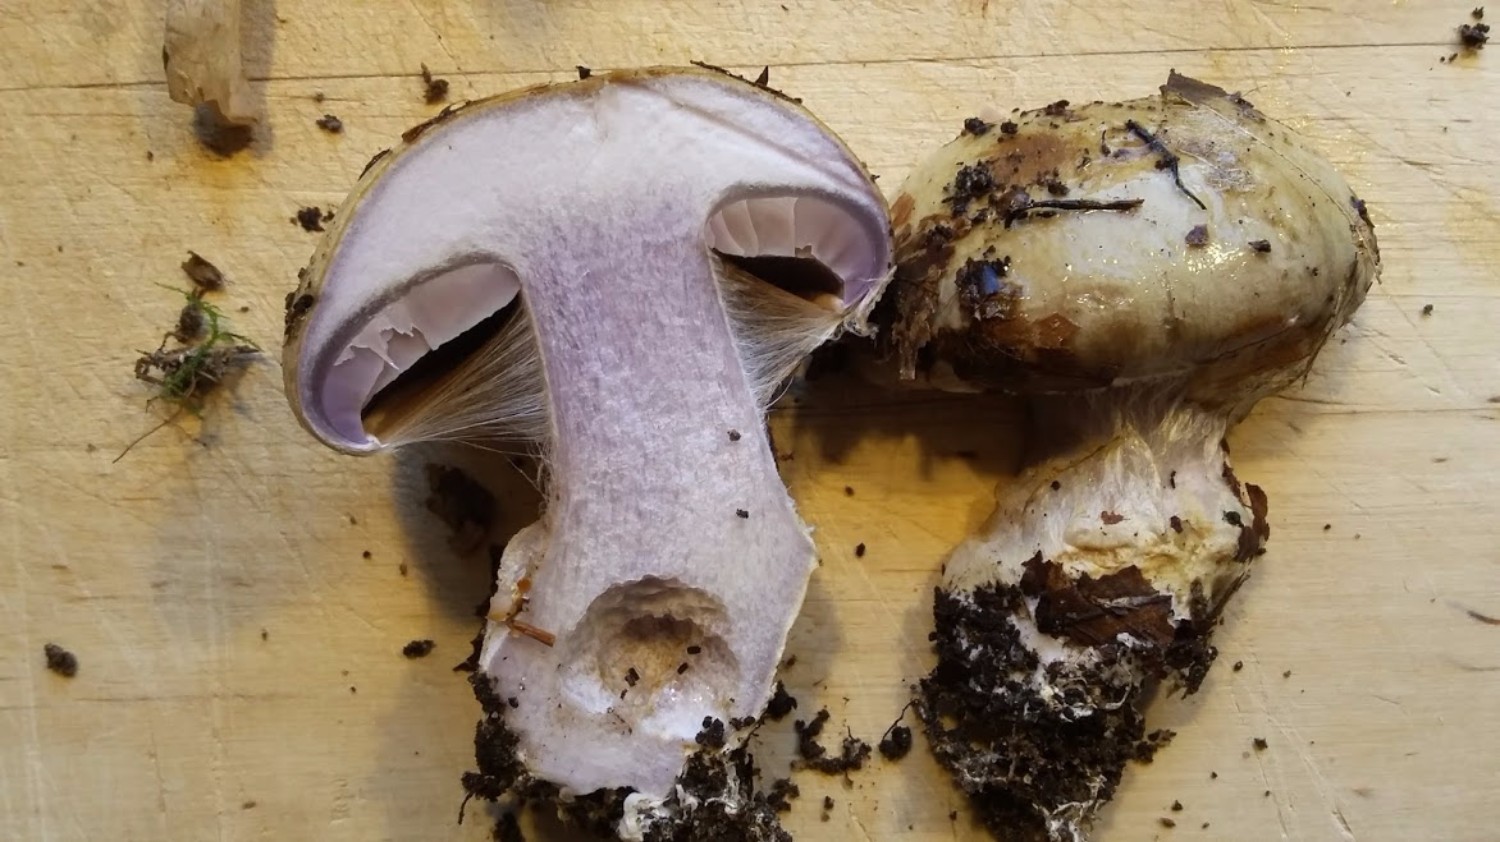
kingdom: Fungi
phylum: Basidiomycota
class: Agaricomycetes
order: Agaricales
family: Cortinariaceae
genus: Cortinarius
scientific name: Cortinarius anserinus
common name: bøge-slørhat
